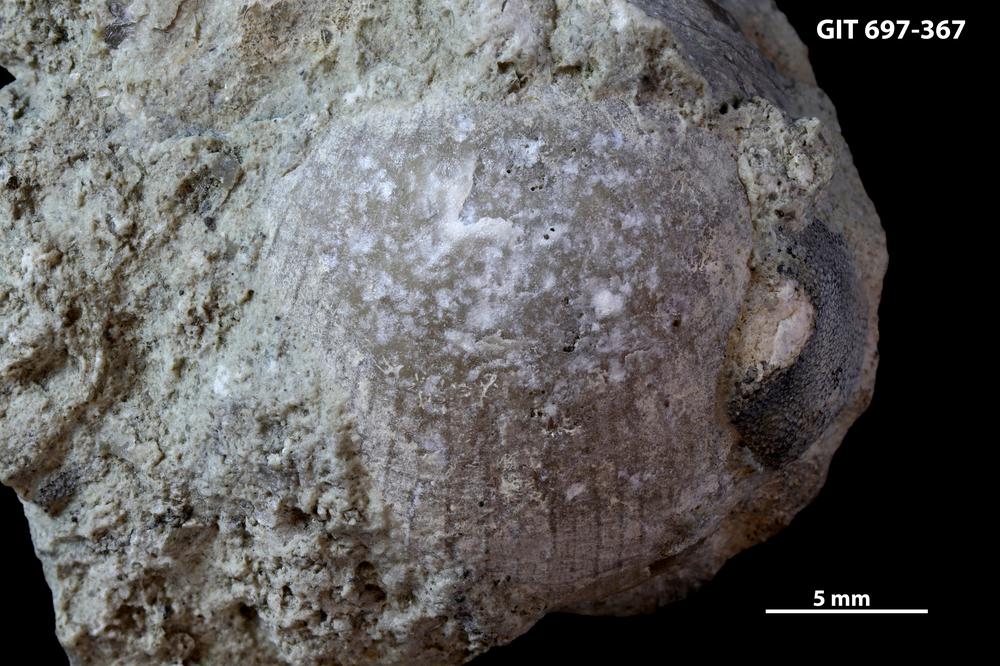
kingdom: Animalia
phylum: Brachiopoda
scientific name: Brachiopoda
